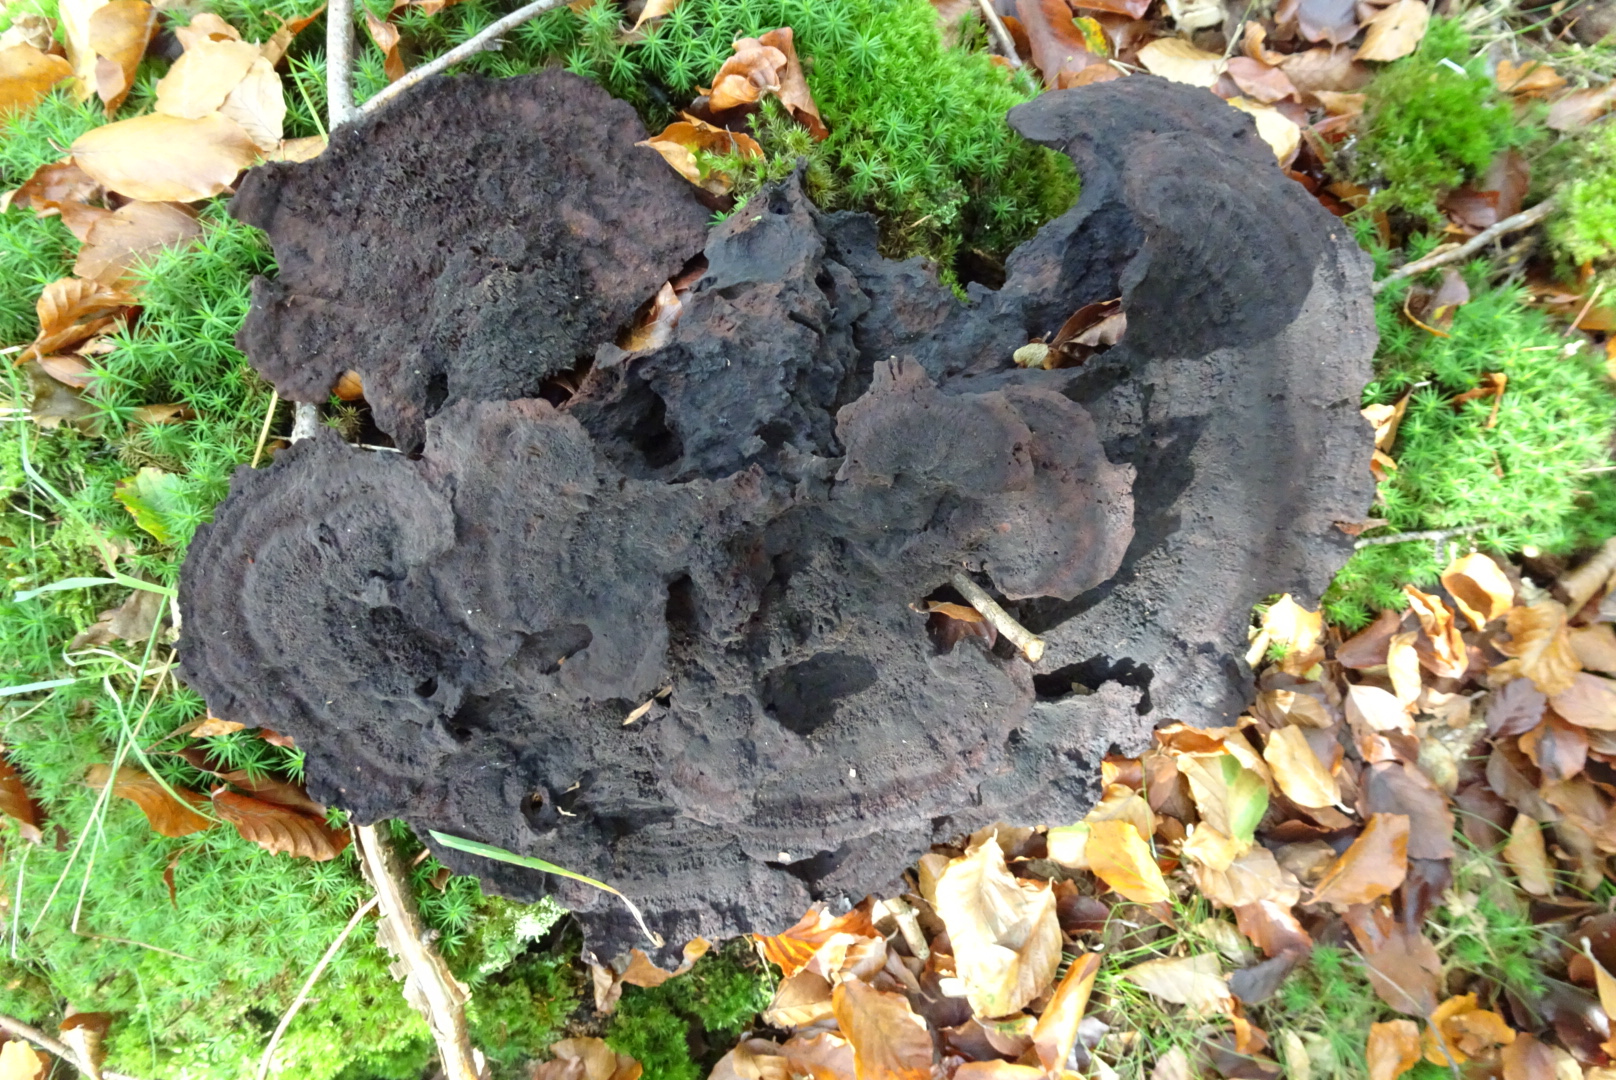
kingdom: Fungi
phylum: Basidiomycota
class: Agaricomycetes
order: Polyporales
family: Laetiporaceae
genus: Phaeolus
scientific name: Phaeolus schweinitzii
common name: brunporesvamp
